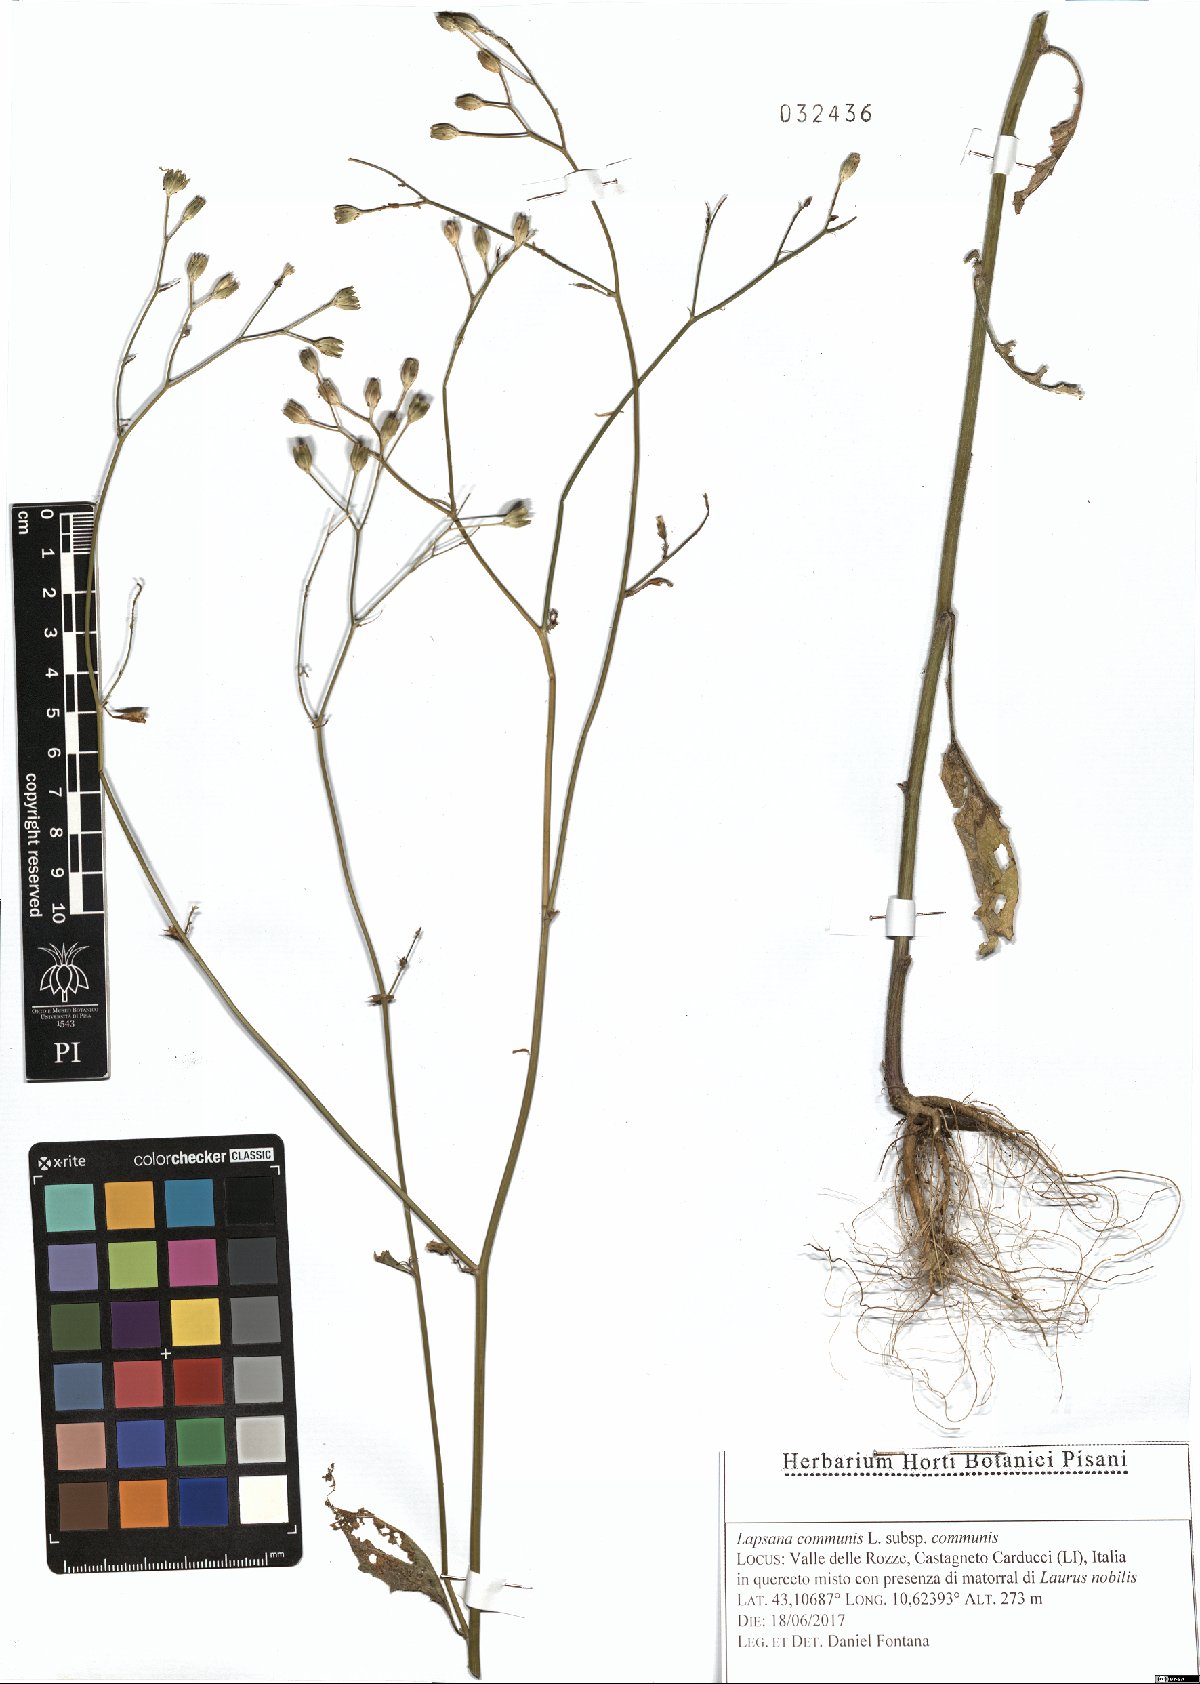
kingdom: Plantae
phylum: Tracheophyta
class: Magnoliopsida
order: Asterales
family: Asteraceae
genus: Lapsana
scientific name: Lapsana communis
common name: Nipplewort
